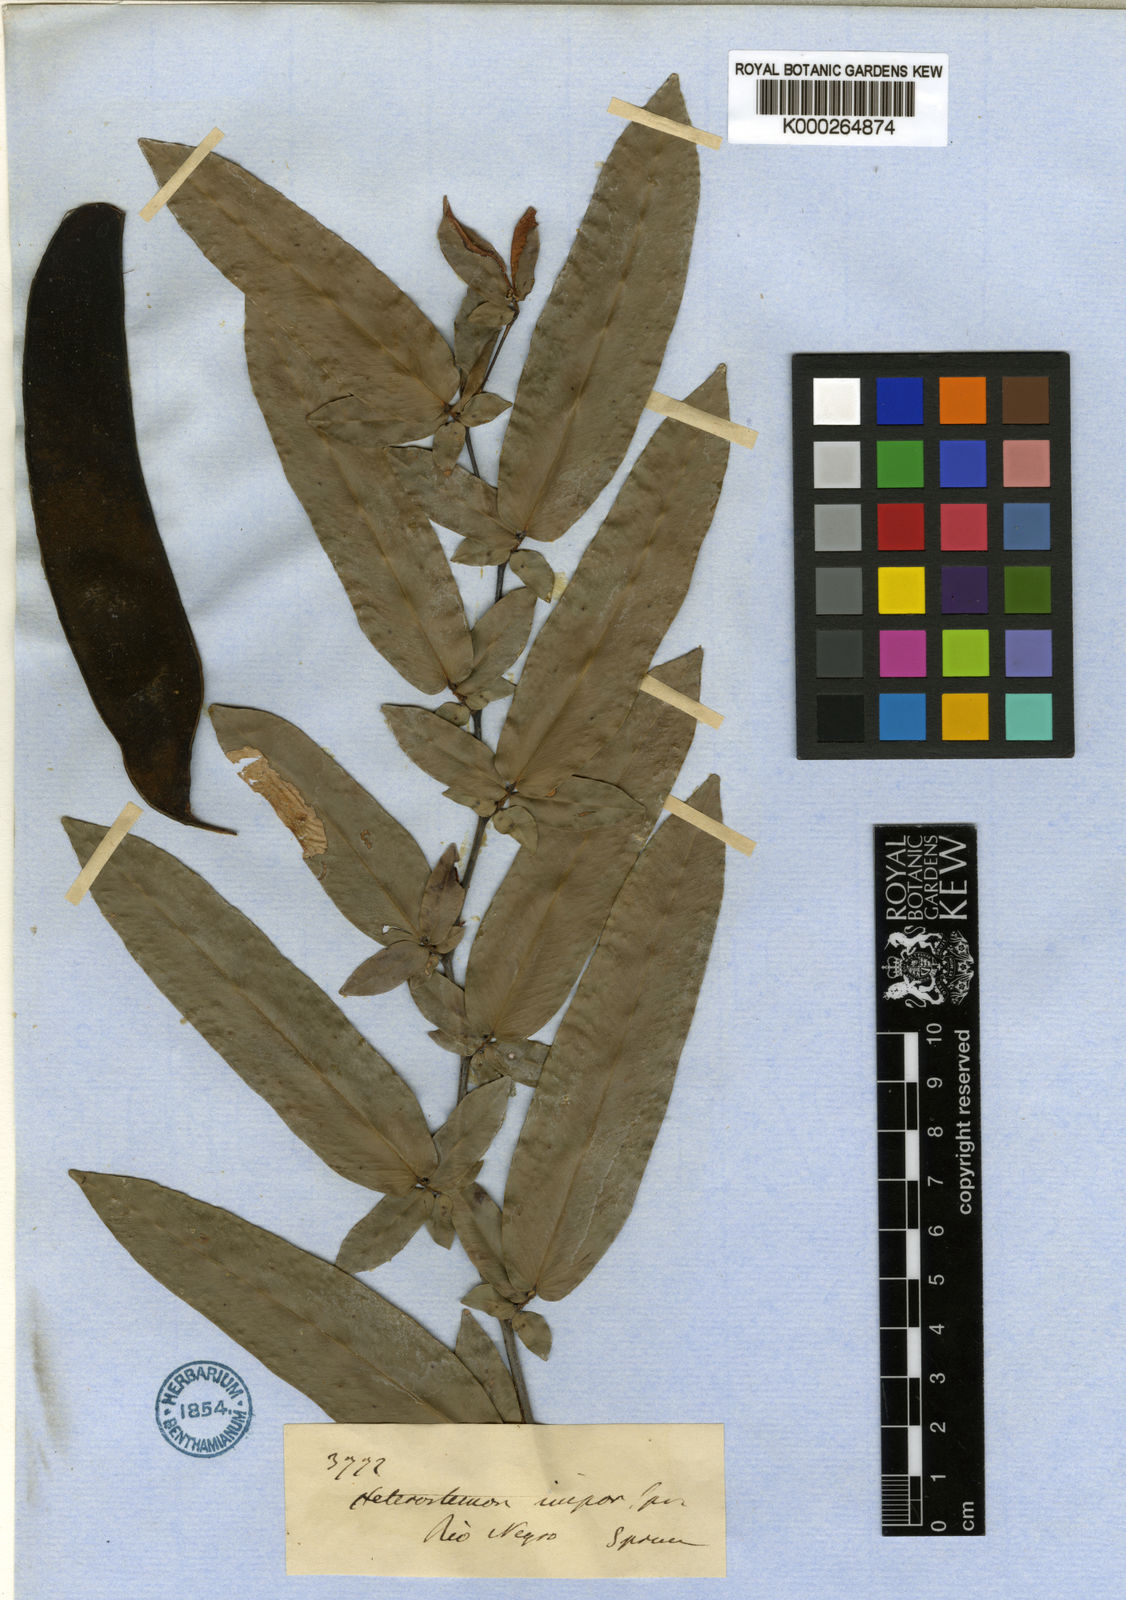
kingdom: Plantae
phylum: Tracheophyta
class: Magnoliopsida
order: Fabales
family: Fabaceae
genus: Heterostemon
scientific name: Heterostemon impar
